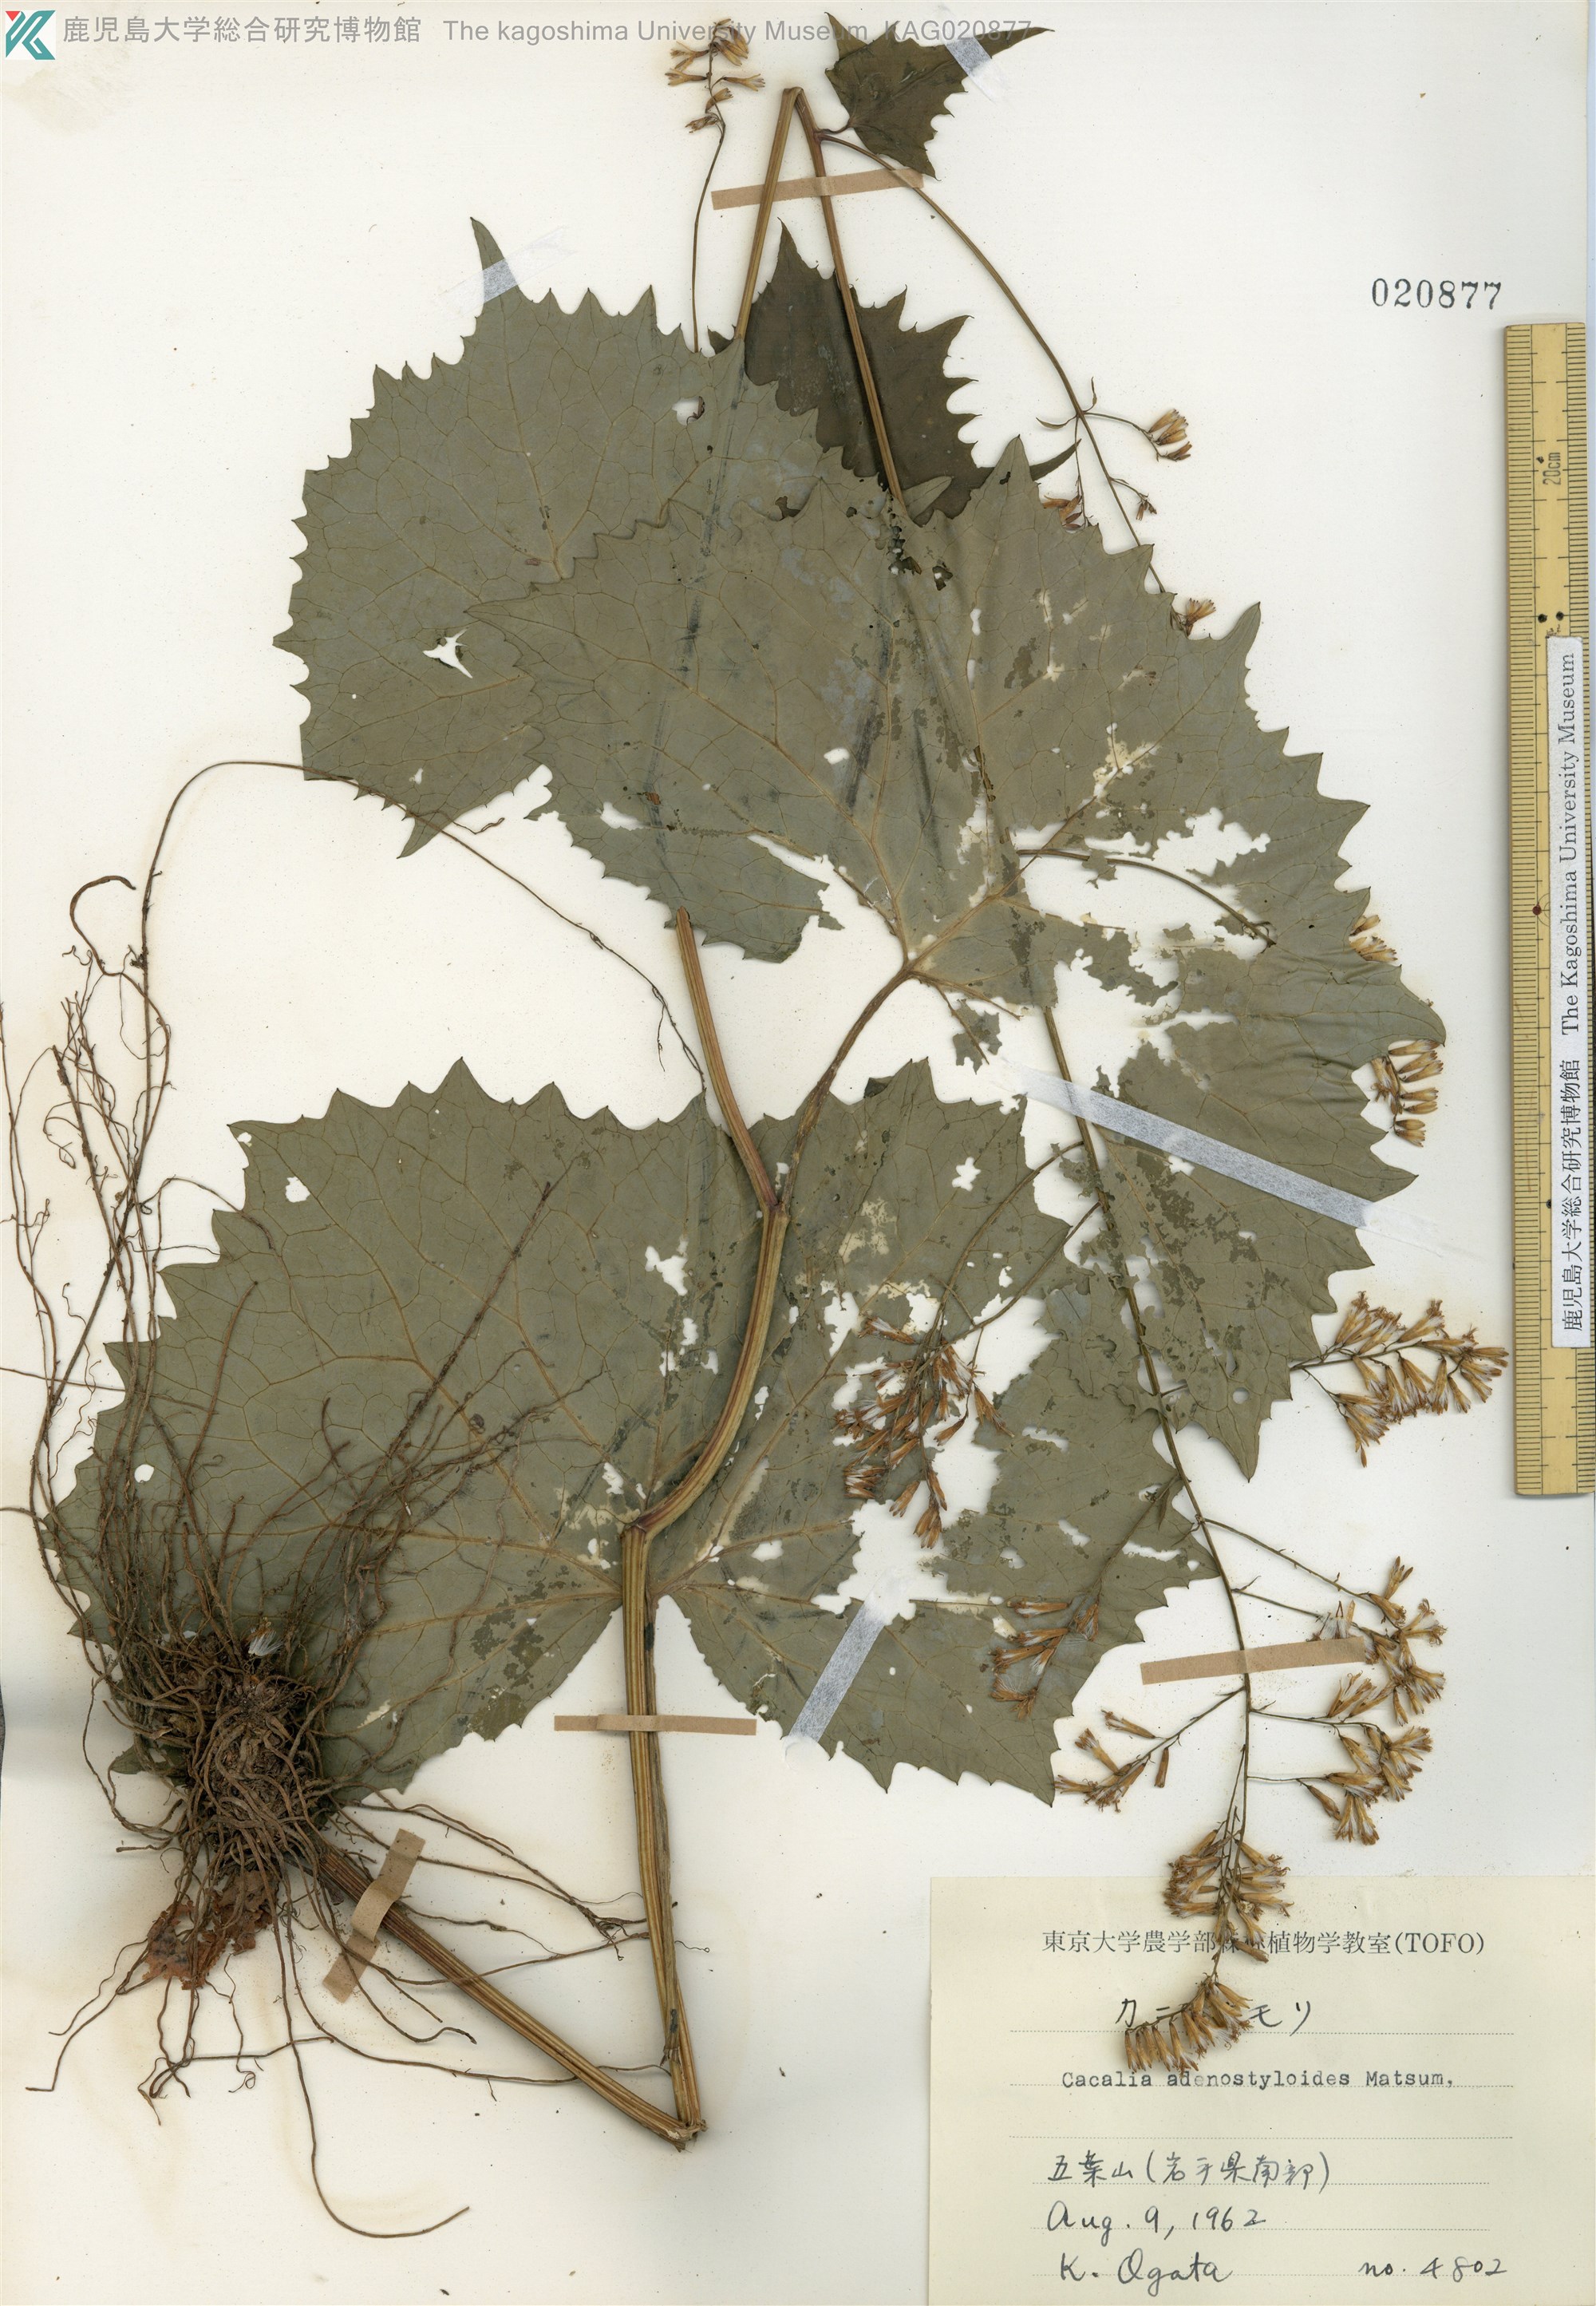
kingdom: Plantae
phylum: Tracheophyta
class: Magnoliopsida
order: Asterales
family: Asteraceae
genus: Parasenecio
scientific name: Parasenecio farfarifolius
